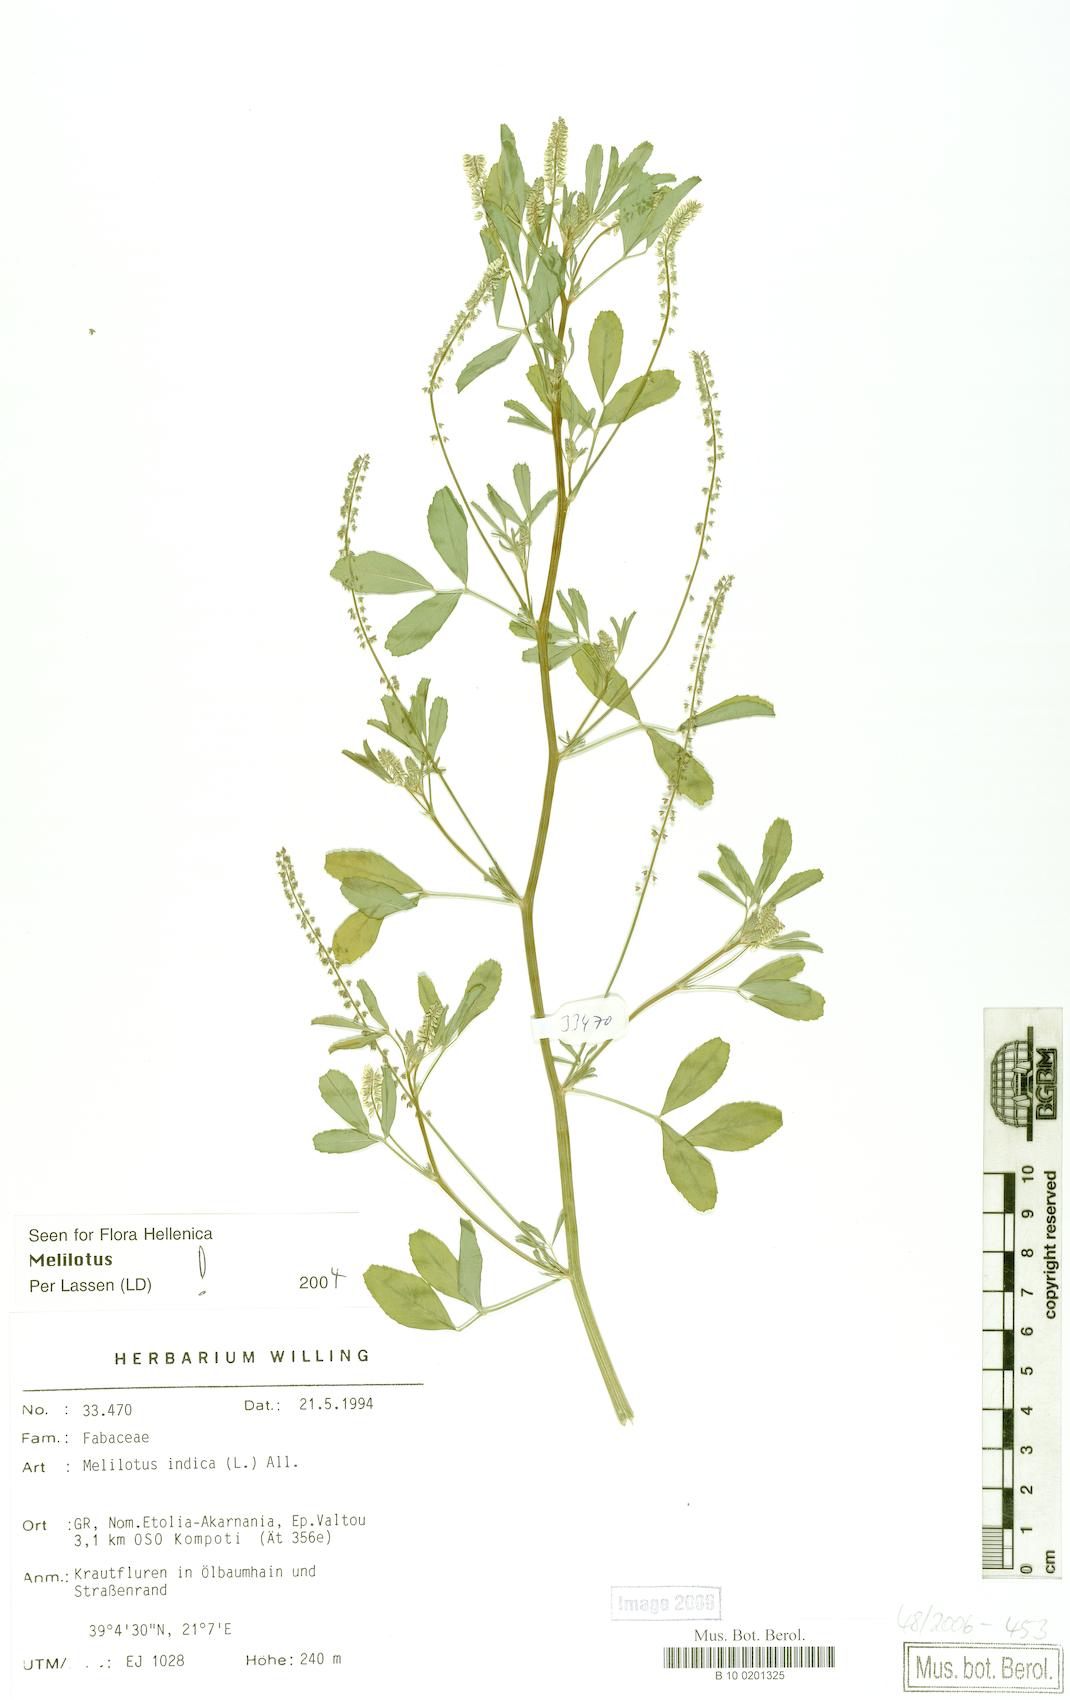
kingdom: Plantae
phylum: Tracheophyta
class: Magnoliopsida
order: Fabales
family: Fabaceae
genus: Melilotus
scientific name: Melilotus indicus
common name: Small melilot
